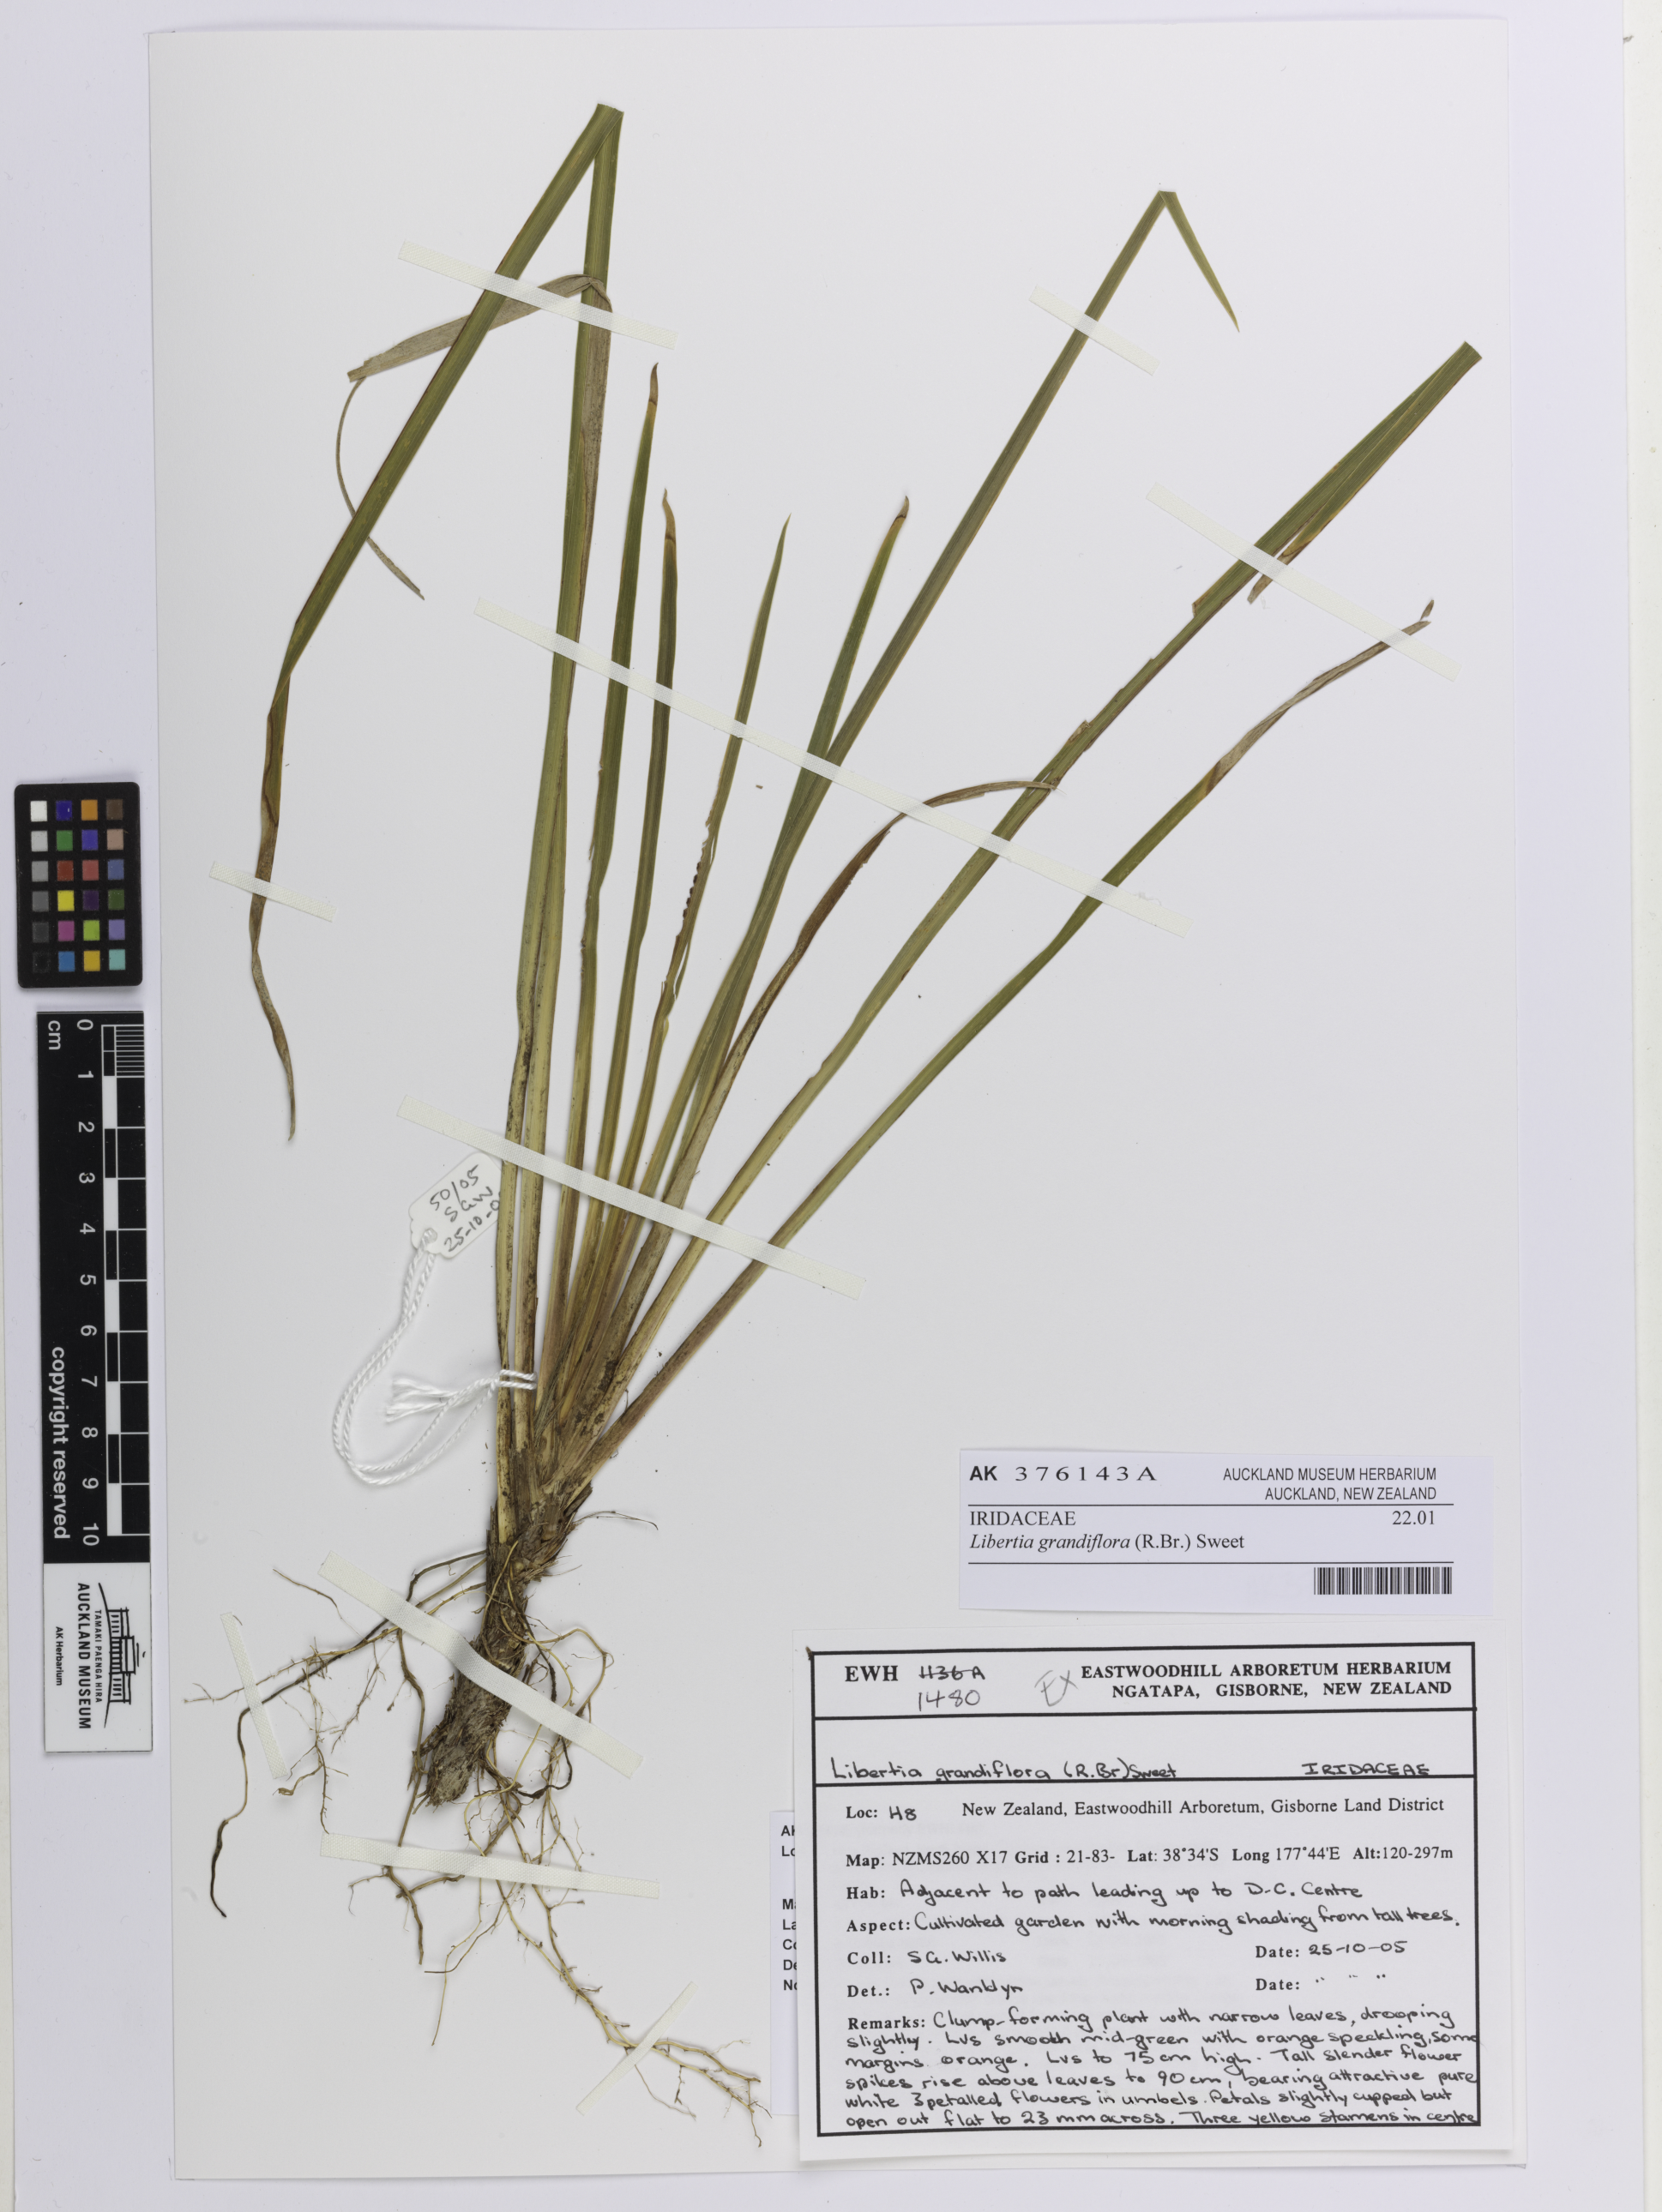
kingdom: Plantae
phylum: Tracheophyta
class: Liliopsida
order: Asparagales
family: Iridaceae
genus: Libertia
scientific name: Libertia grandiflora
